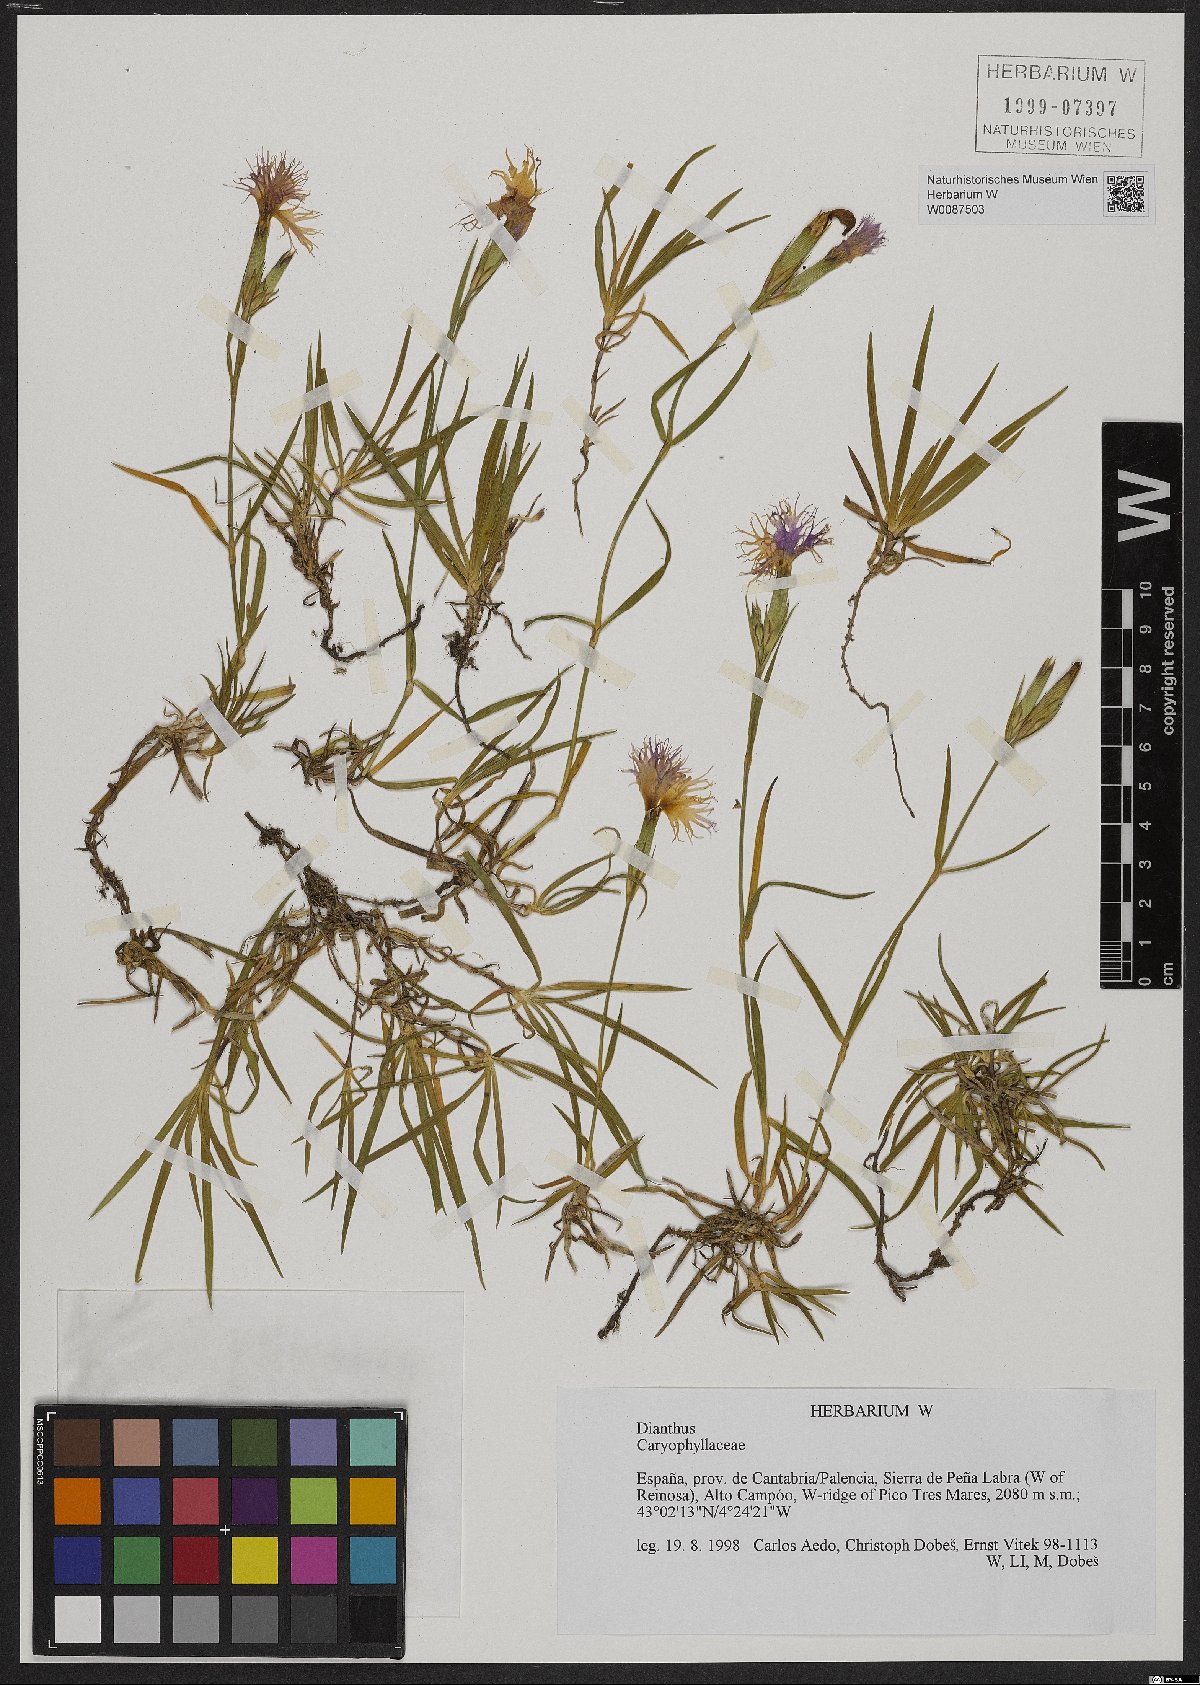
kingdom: Plantae
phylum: Tracheophyta
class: Magnoliopsida
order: Caryophyllales
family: Caryophyllaceae
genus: Dianthus
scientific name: Dianthus
